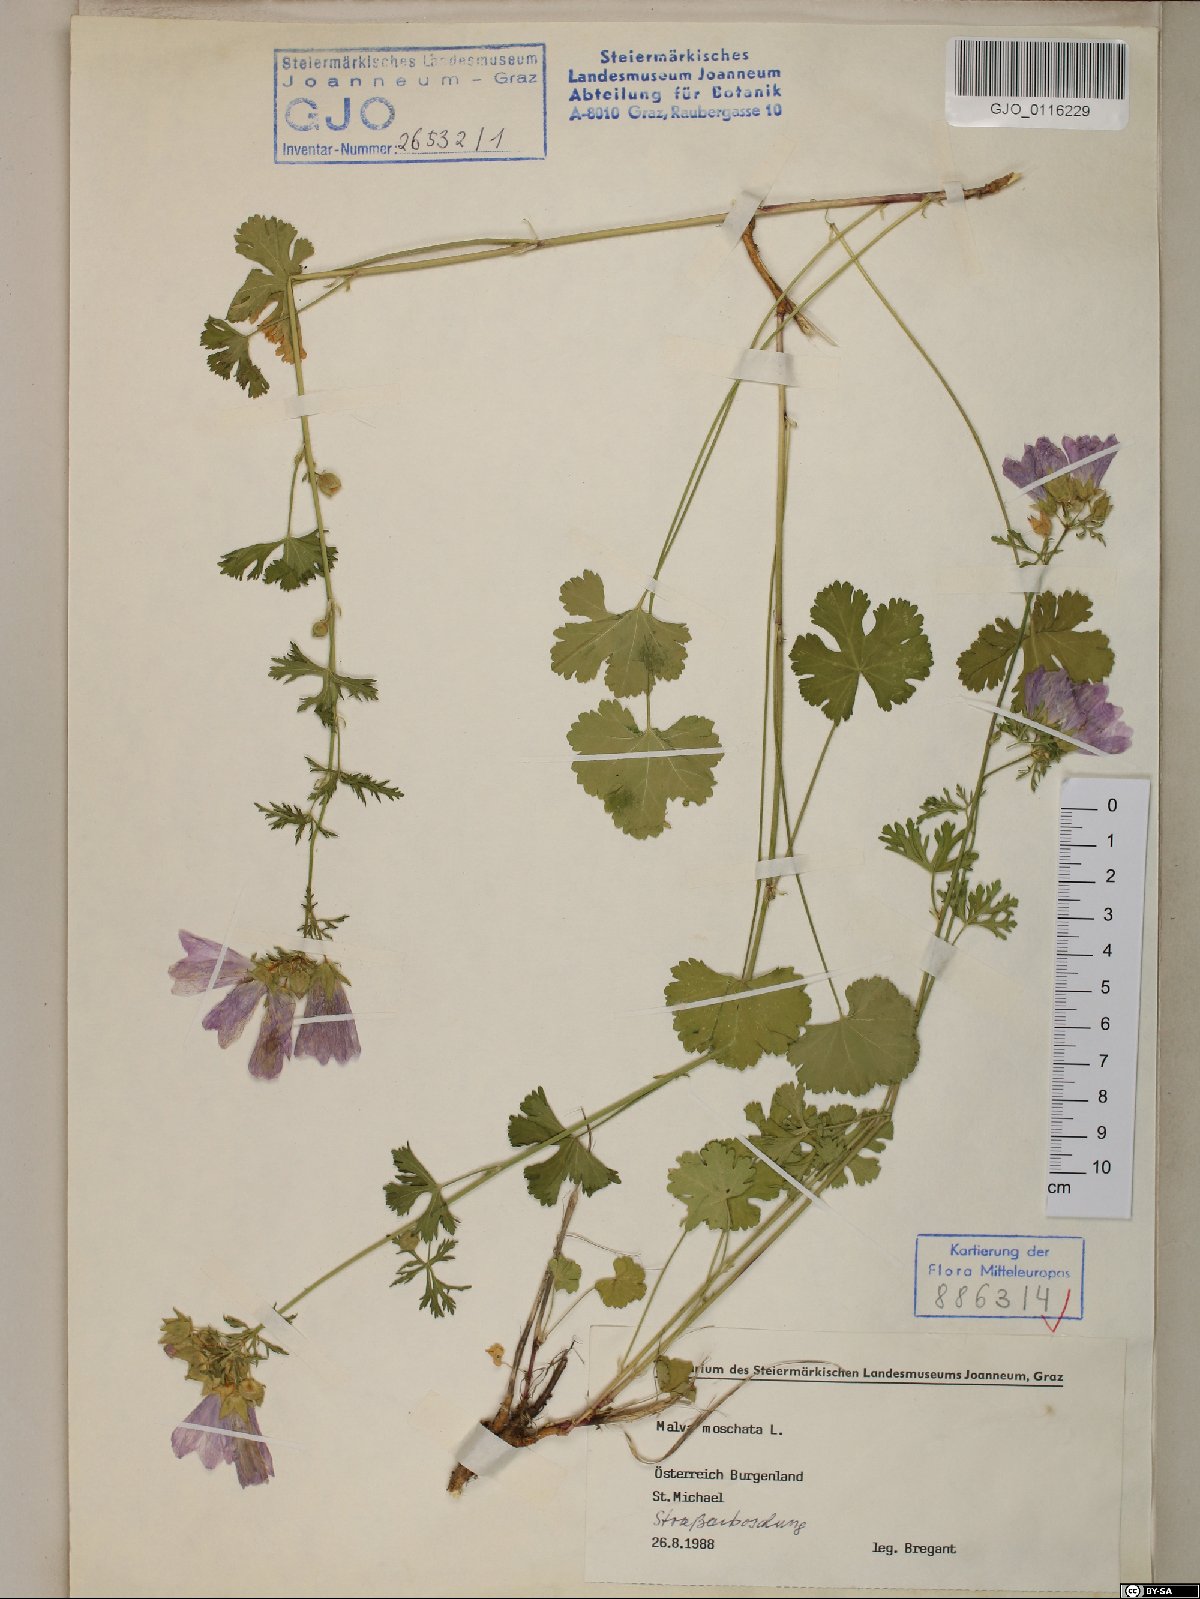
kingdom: Plantae
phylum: Tracheophyta
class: Magnoliopsida
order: Malvales
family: Malvaceae
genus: Malva
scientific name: Malva moschata
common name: Musk mallow
